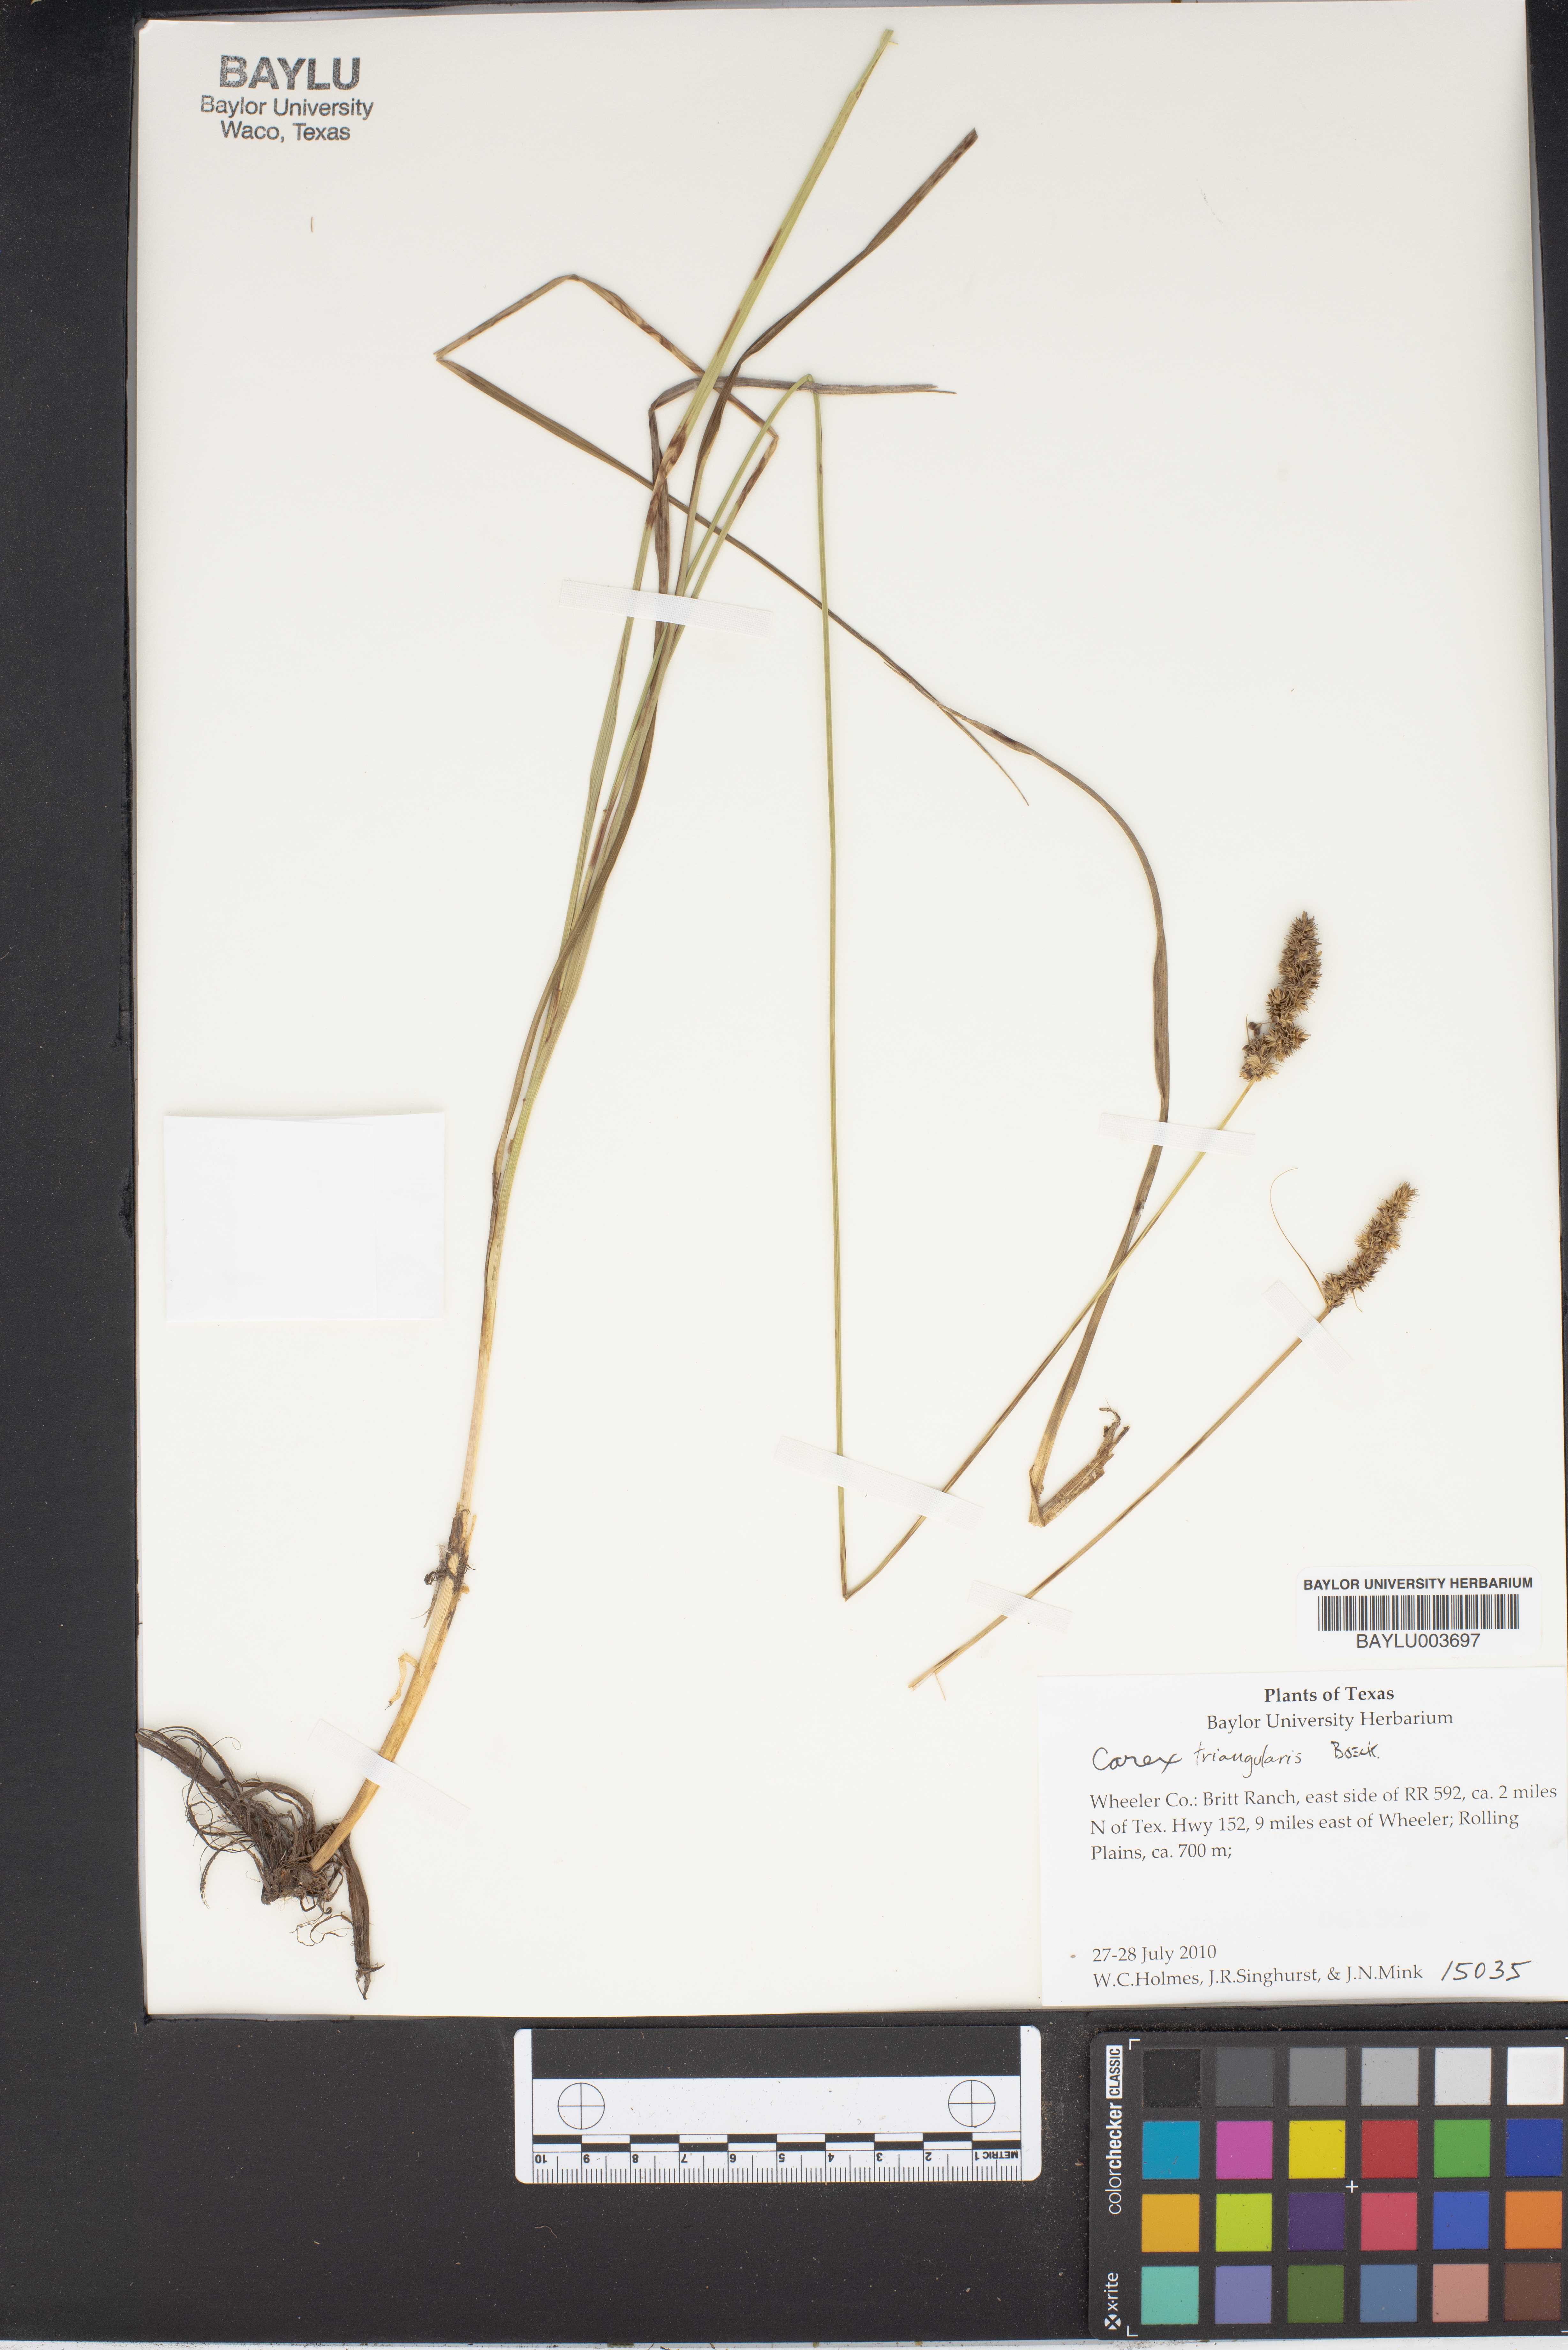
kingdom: Plantae
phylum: Tracheophyta
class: Liliopsida
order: Poales
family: Cyperaceae
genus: Carex
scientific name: Carex triangularis
